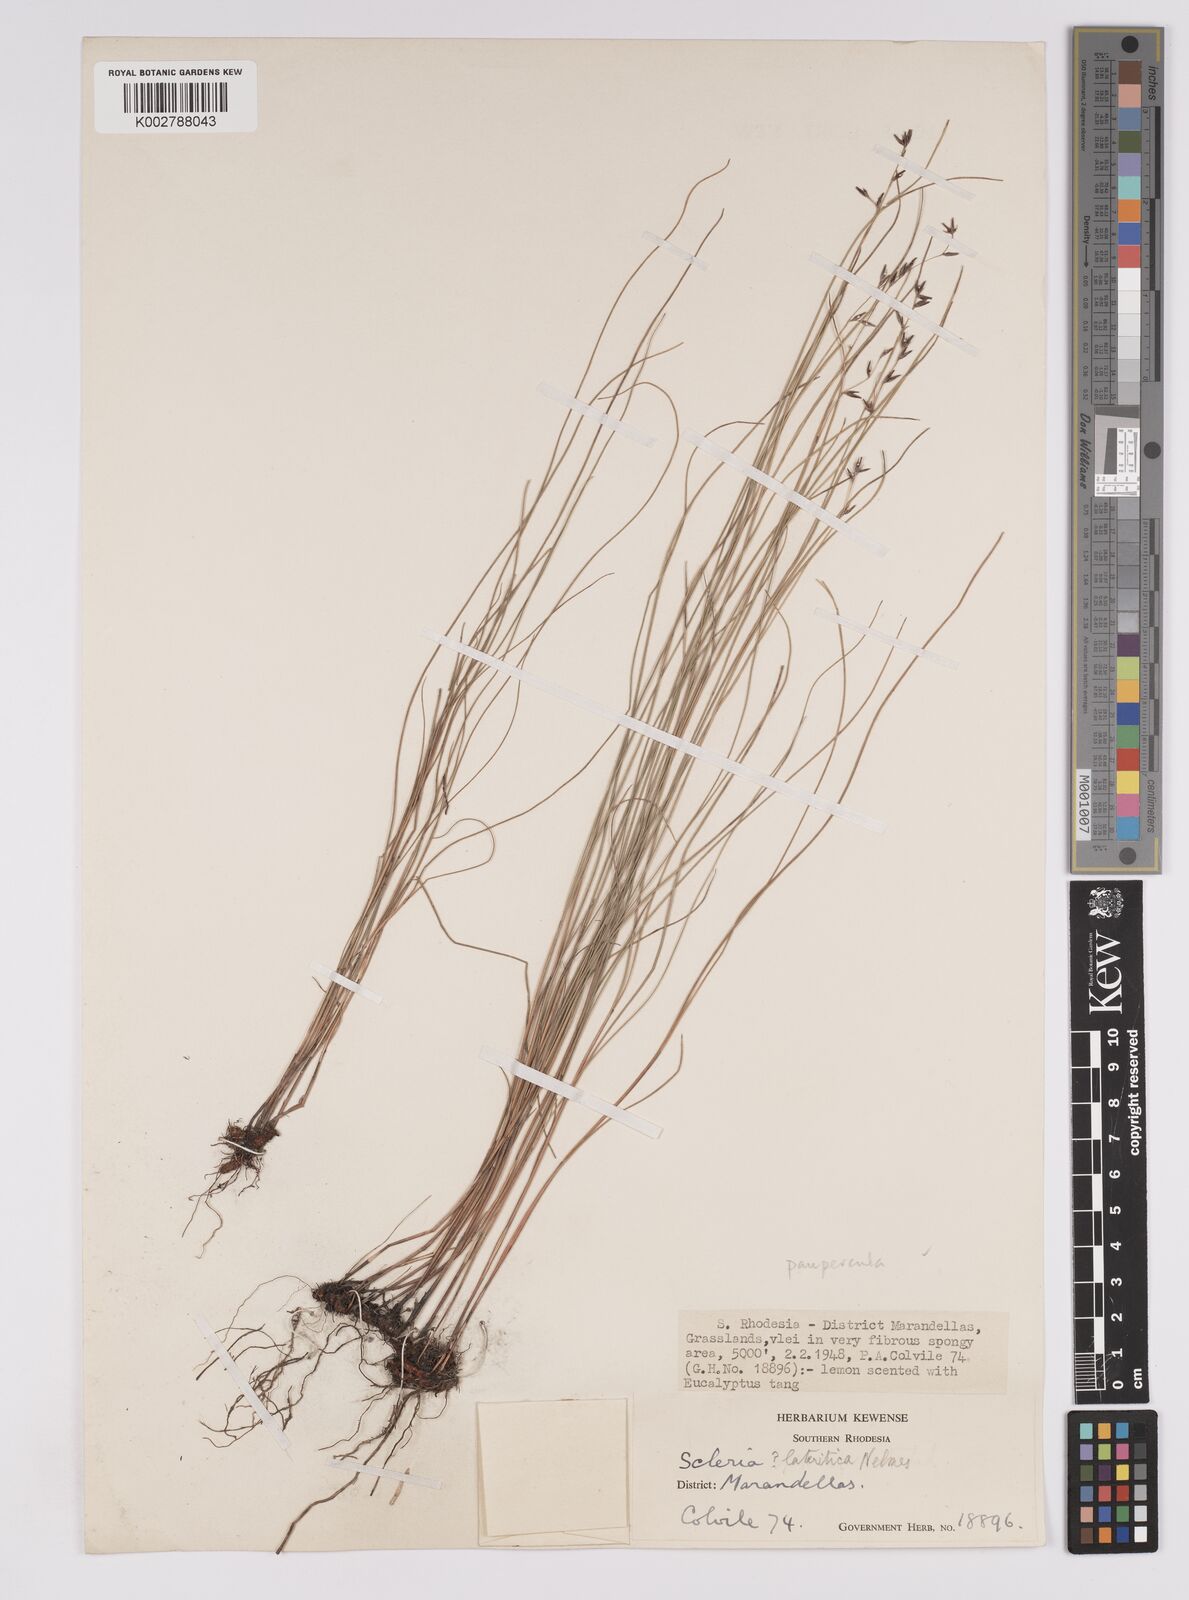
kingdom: Plantae
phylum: Tracheophyta
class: Liliopsida
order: Poales
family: Cyperaceae
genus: Scleria
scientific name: Scleria paupercula
